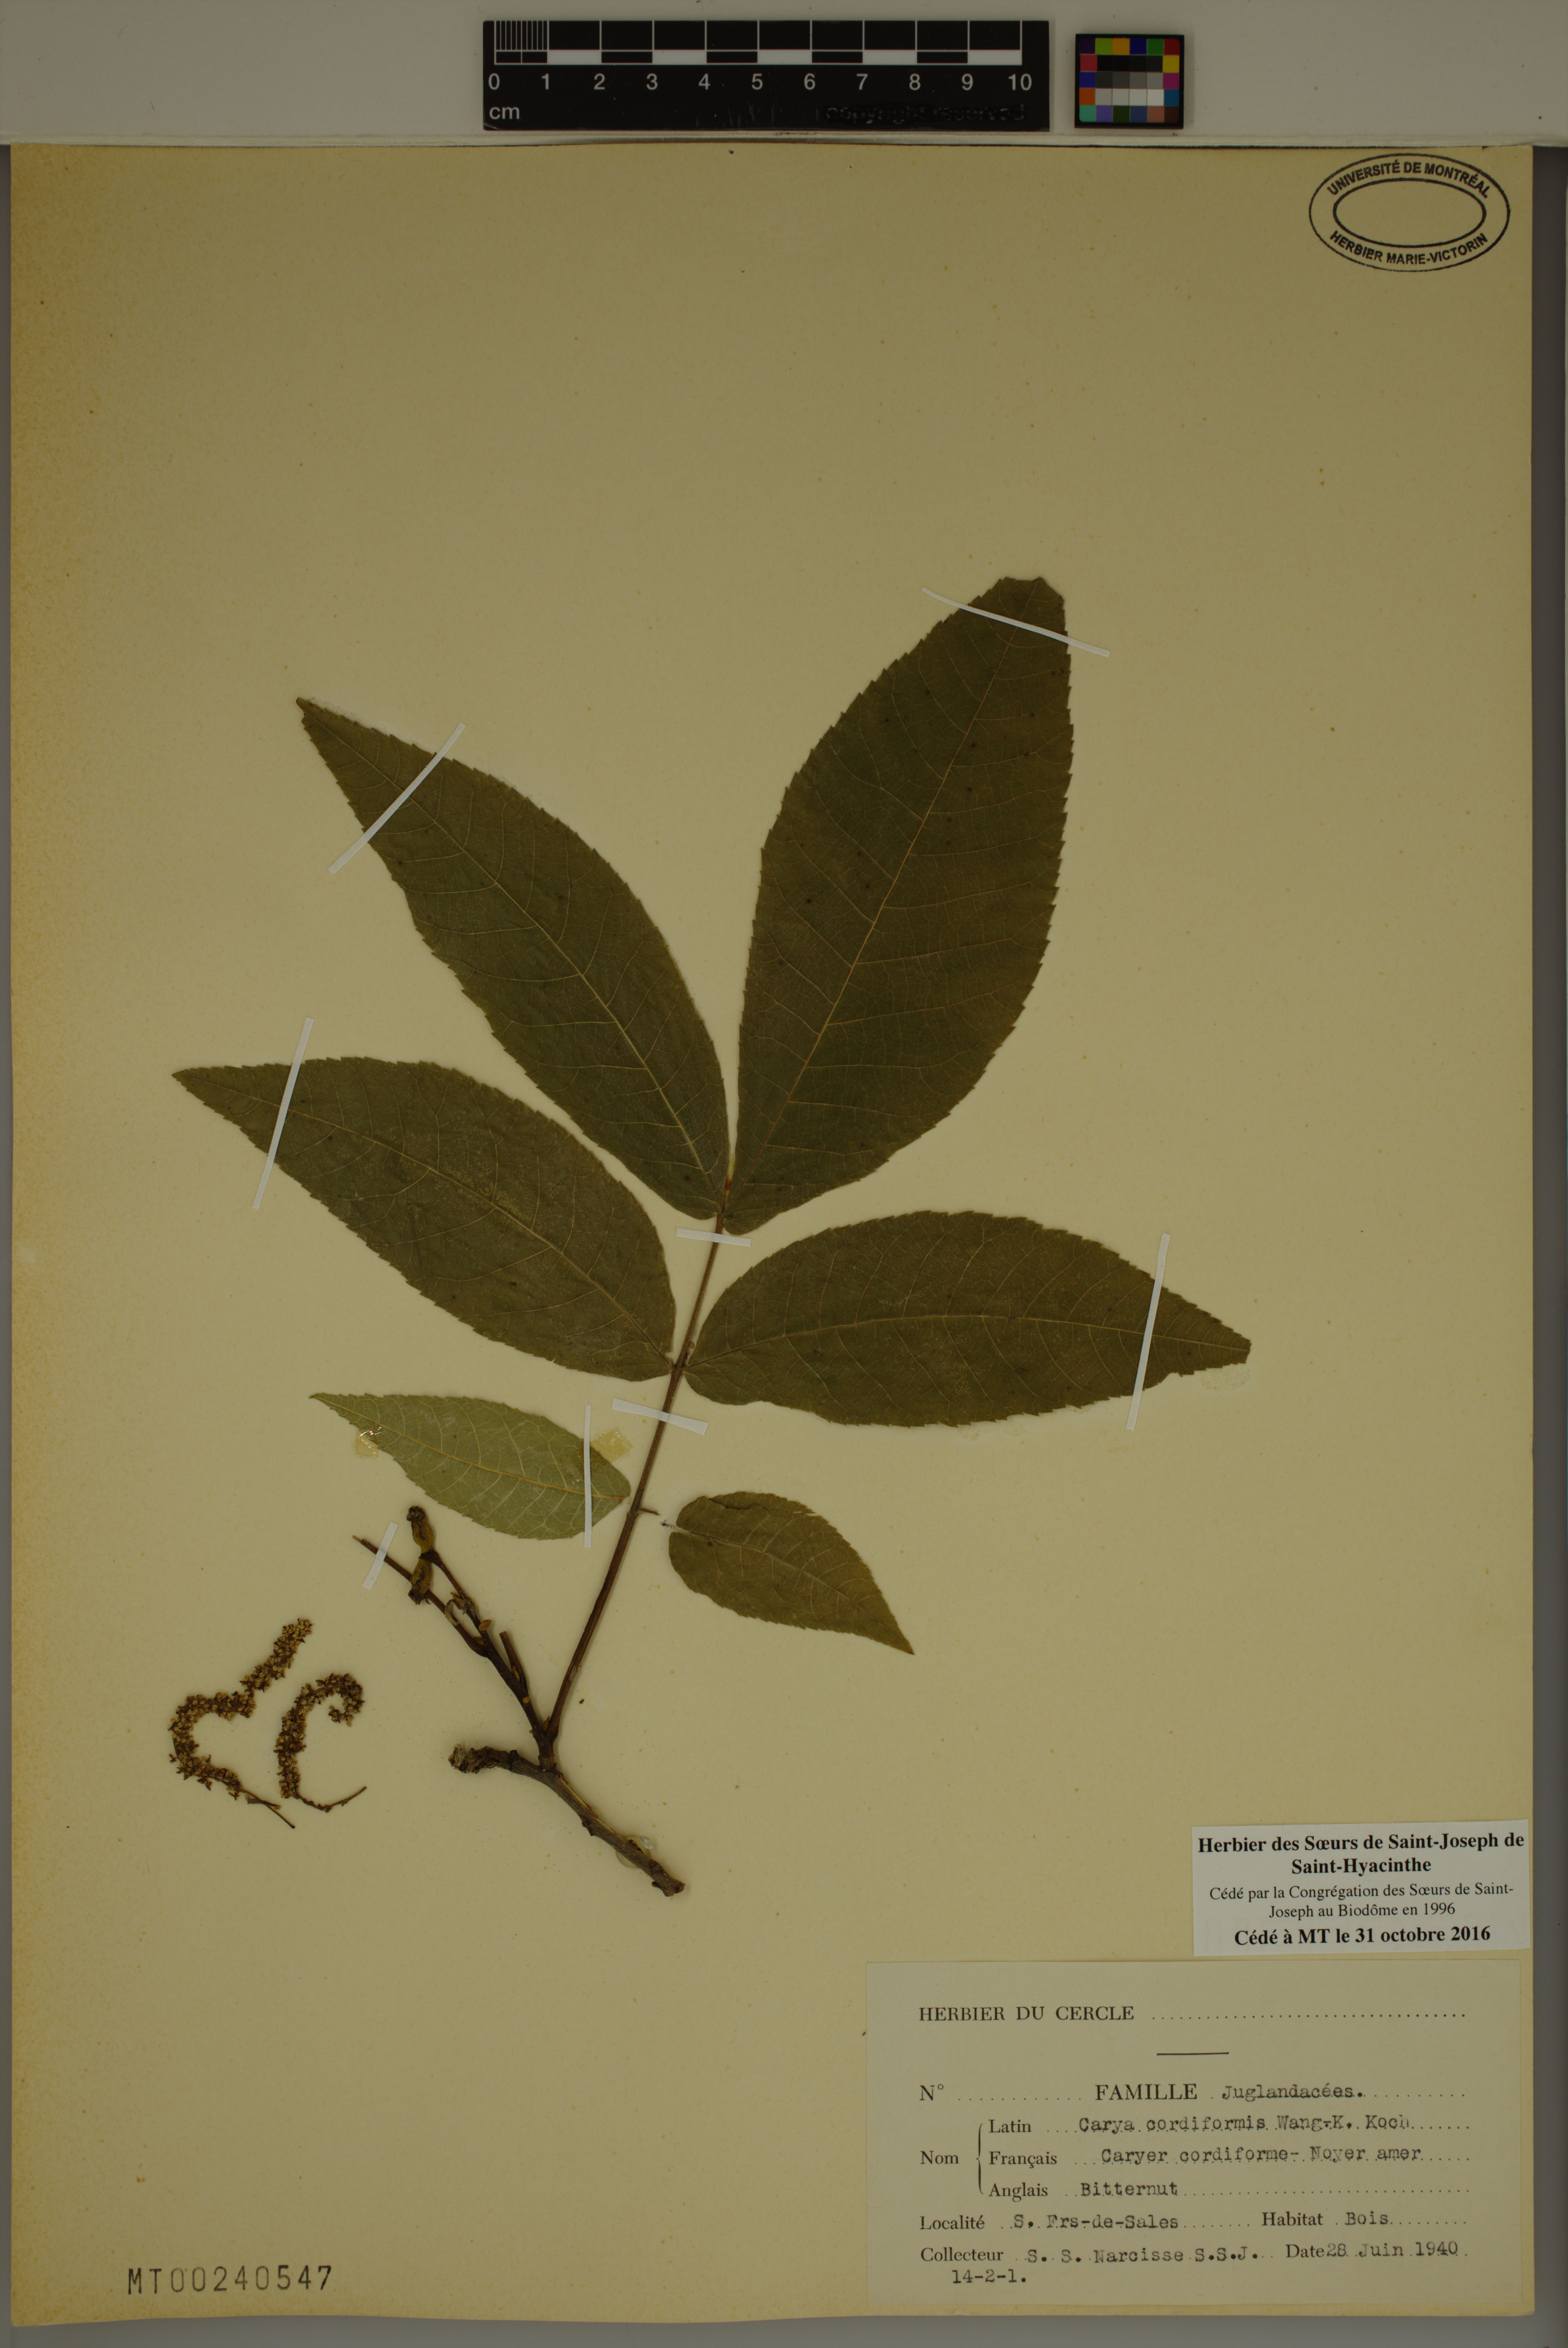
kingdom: Plantae
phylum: Tracheophyta
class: Magnoliopsida
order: Fagales
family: Juglandaceae
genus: Carya
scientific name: Carya cordiformis
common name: Bitternut hickory
